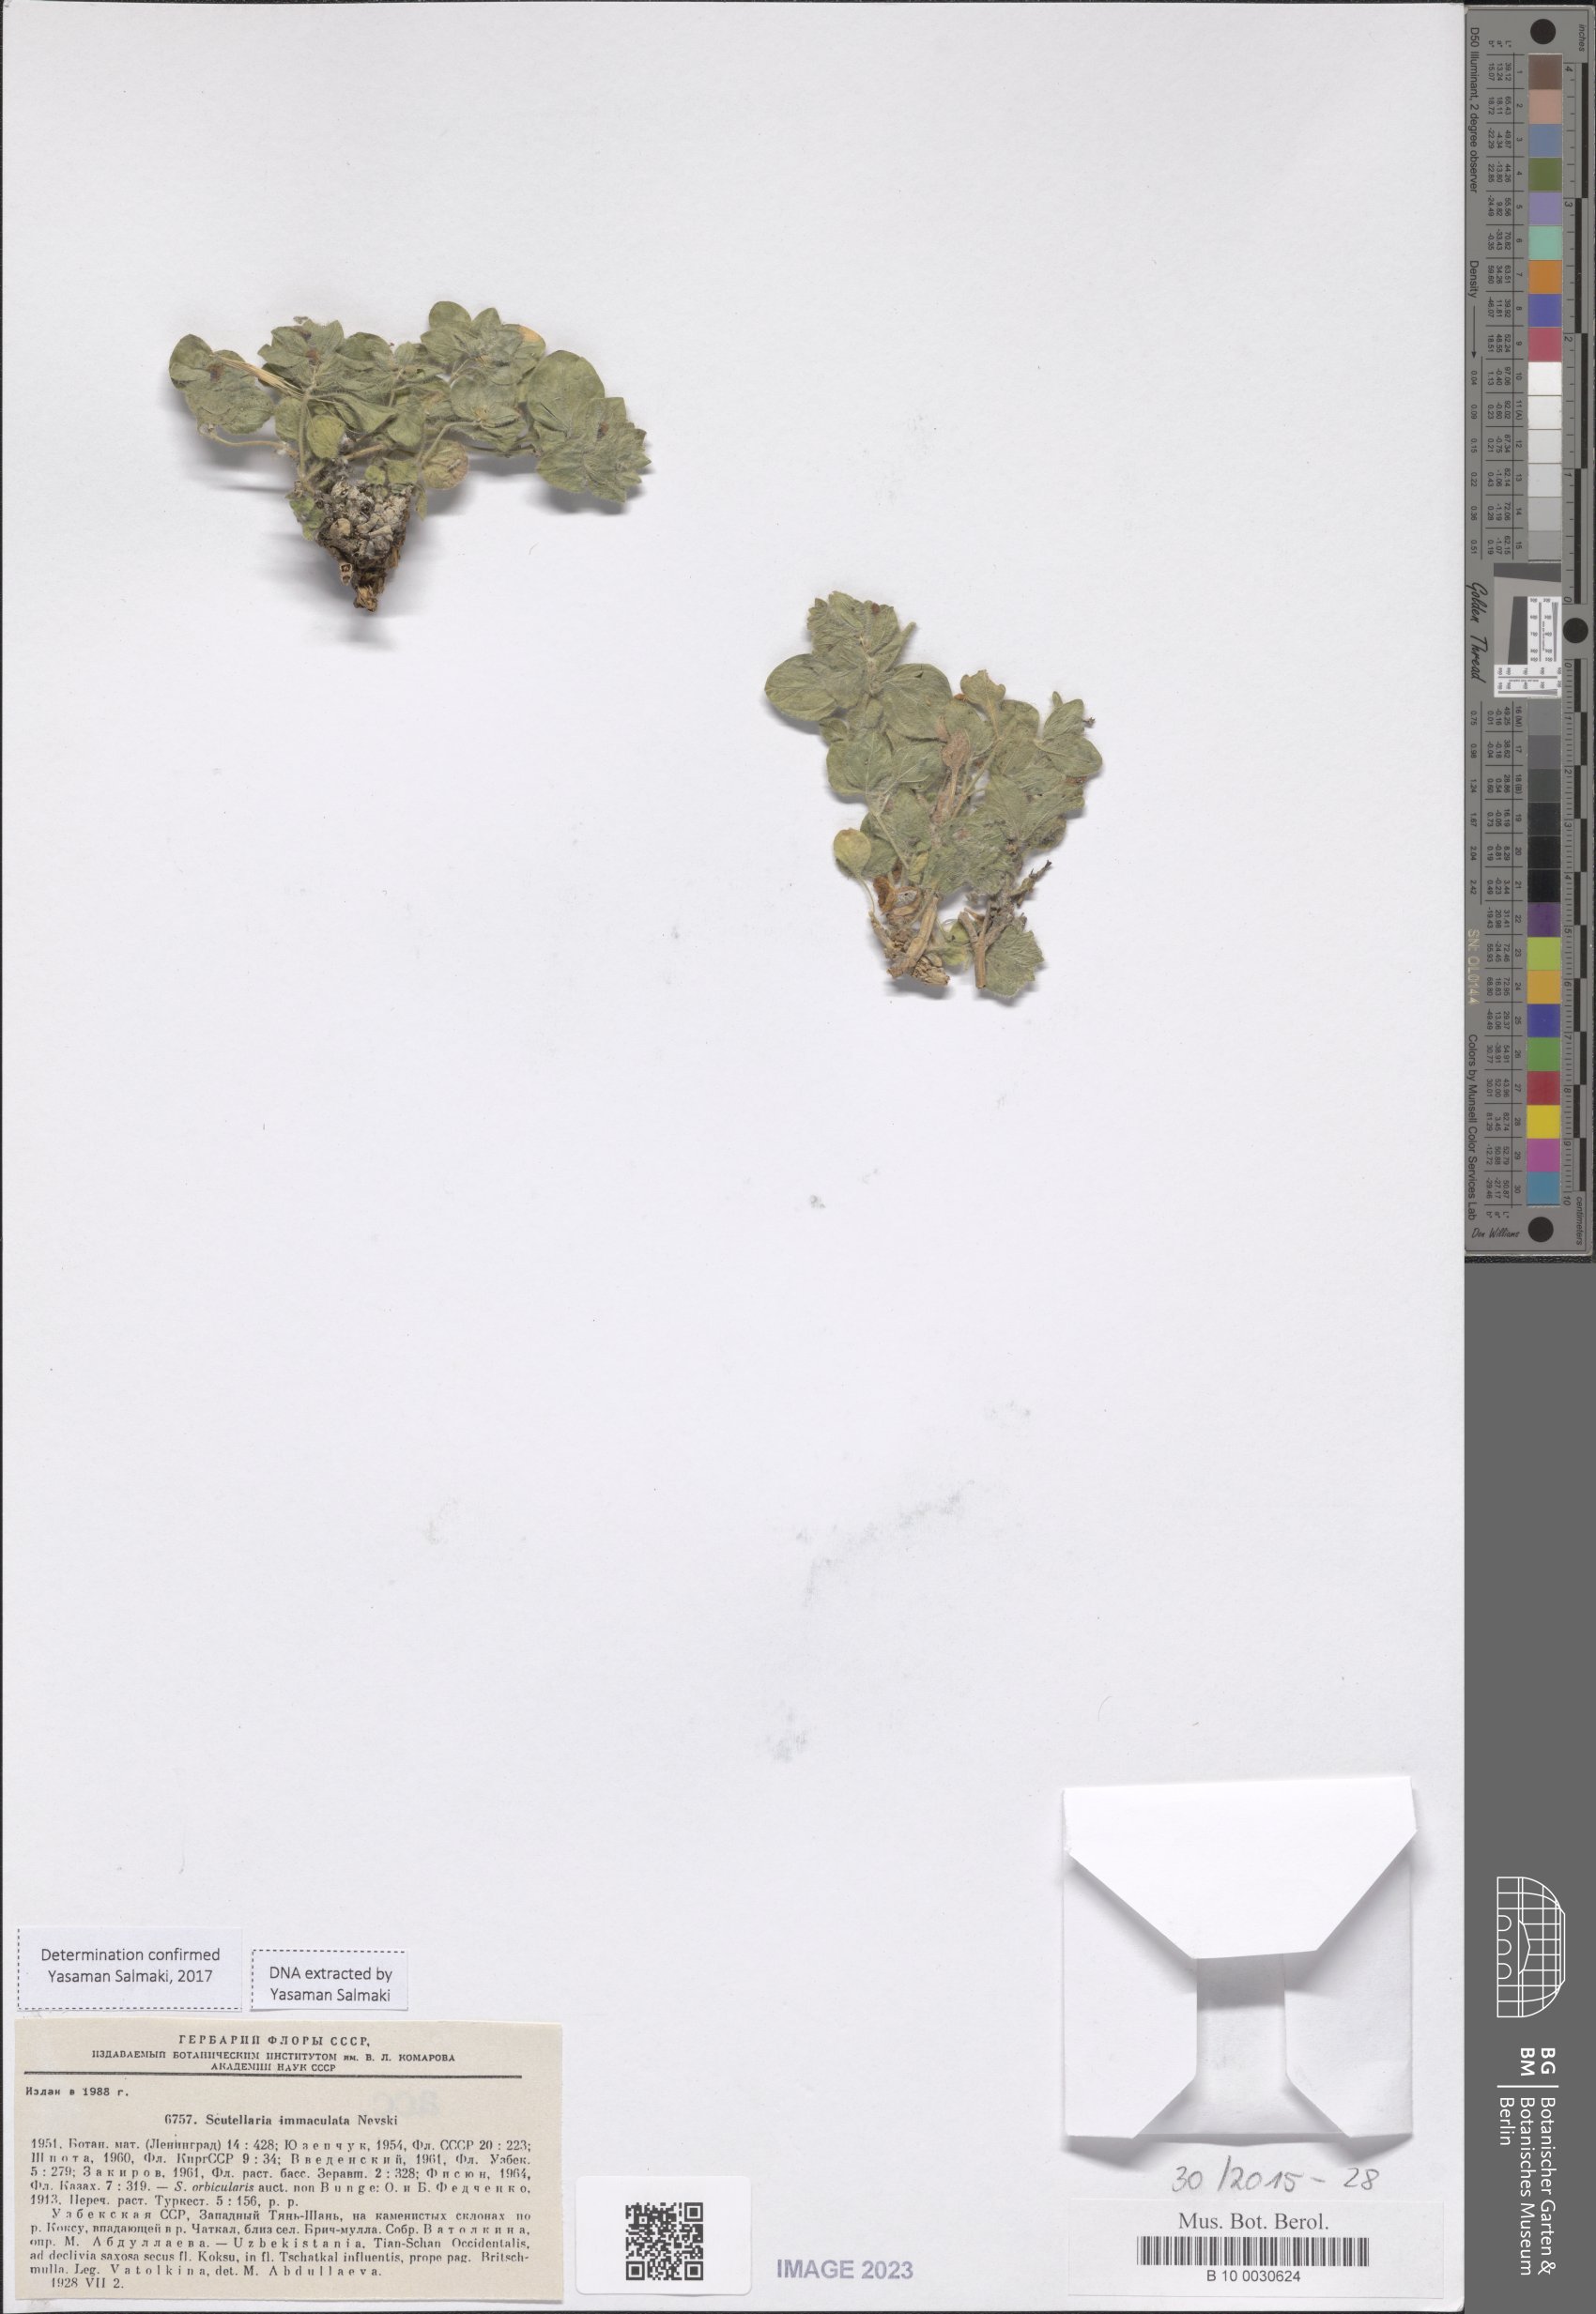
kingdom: Plantae
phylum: Tracheophyta
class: Magnoliopsida
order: Lamiales
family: Lamiaceae
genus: Scutellaria
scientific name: Scutellaria immaculata
